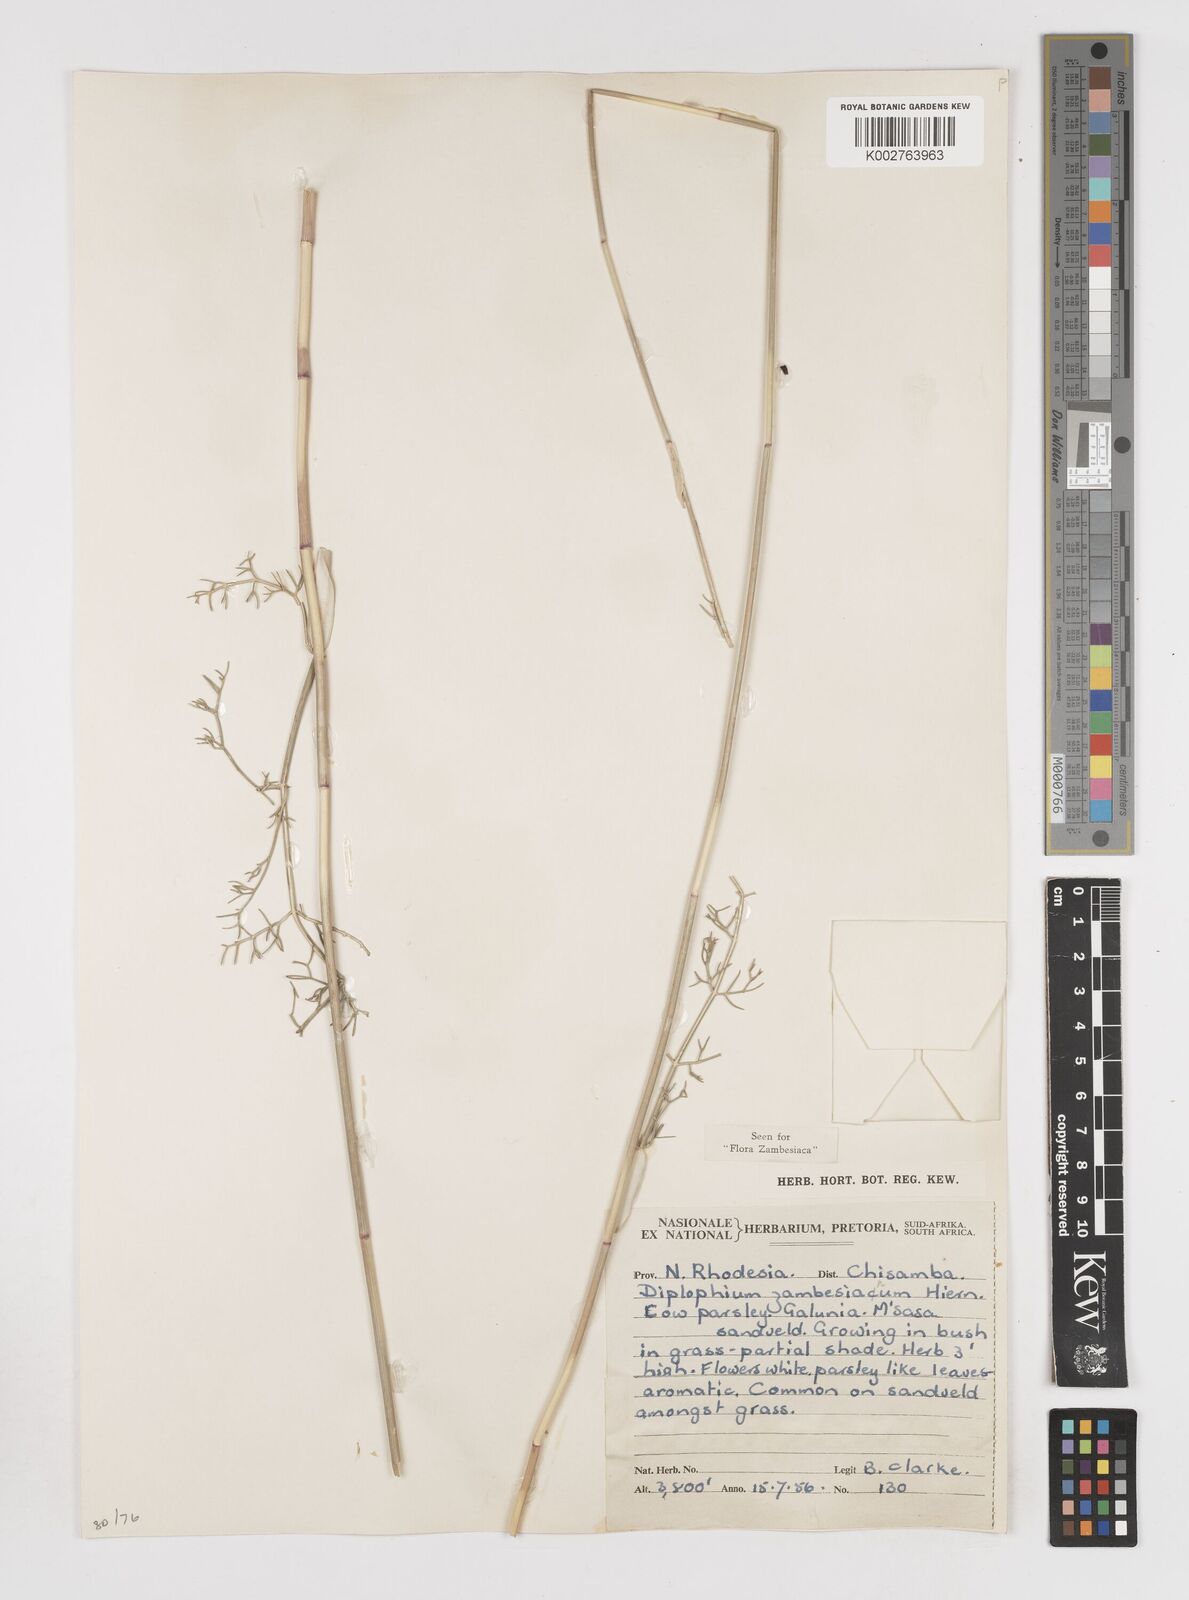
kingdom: Plantae
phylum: Tracheophyta
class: Magnoliopsida
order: Apiales
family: Apiaceae
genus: Diplolophium
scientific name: Diplolophium zambesianum
